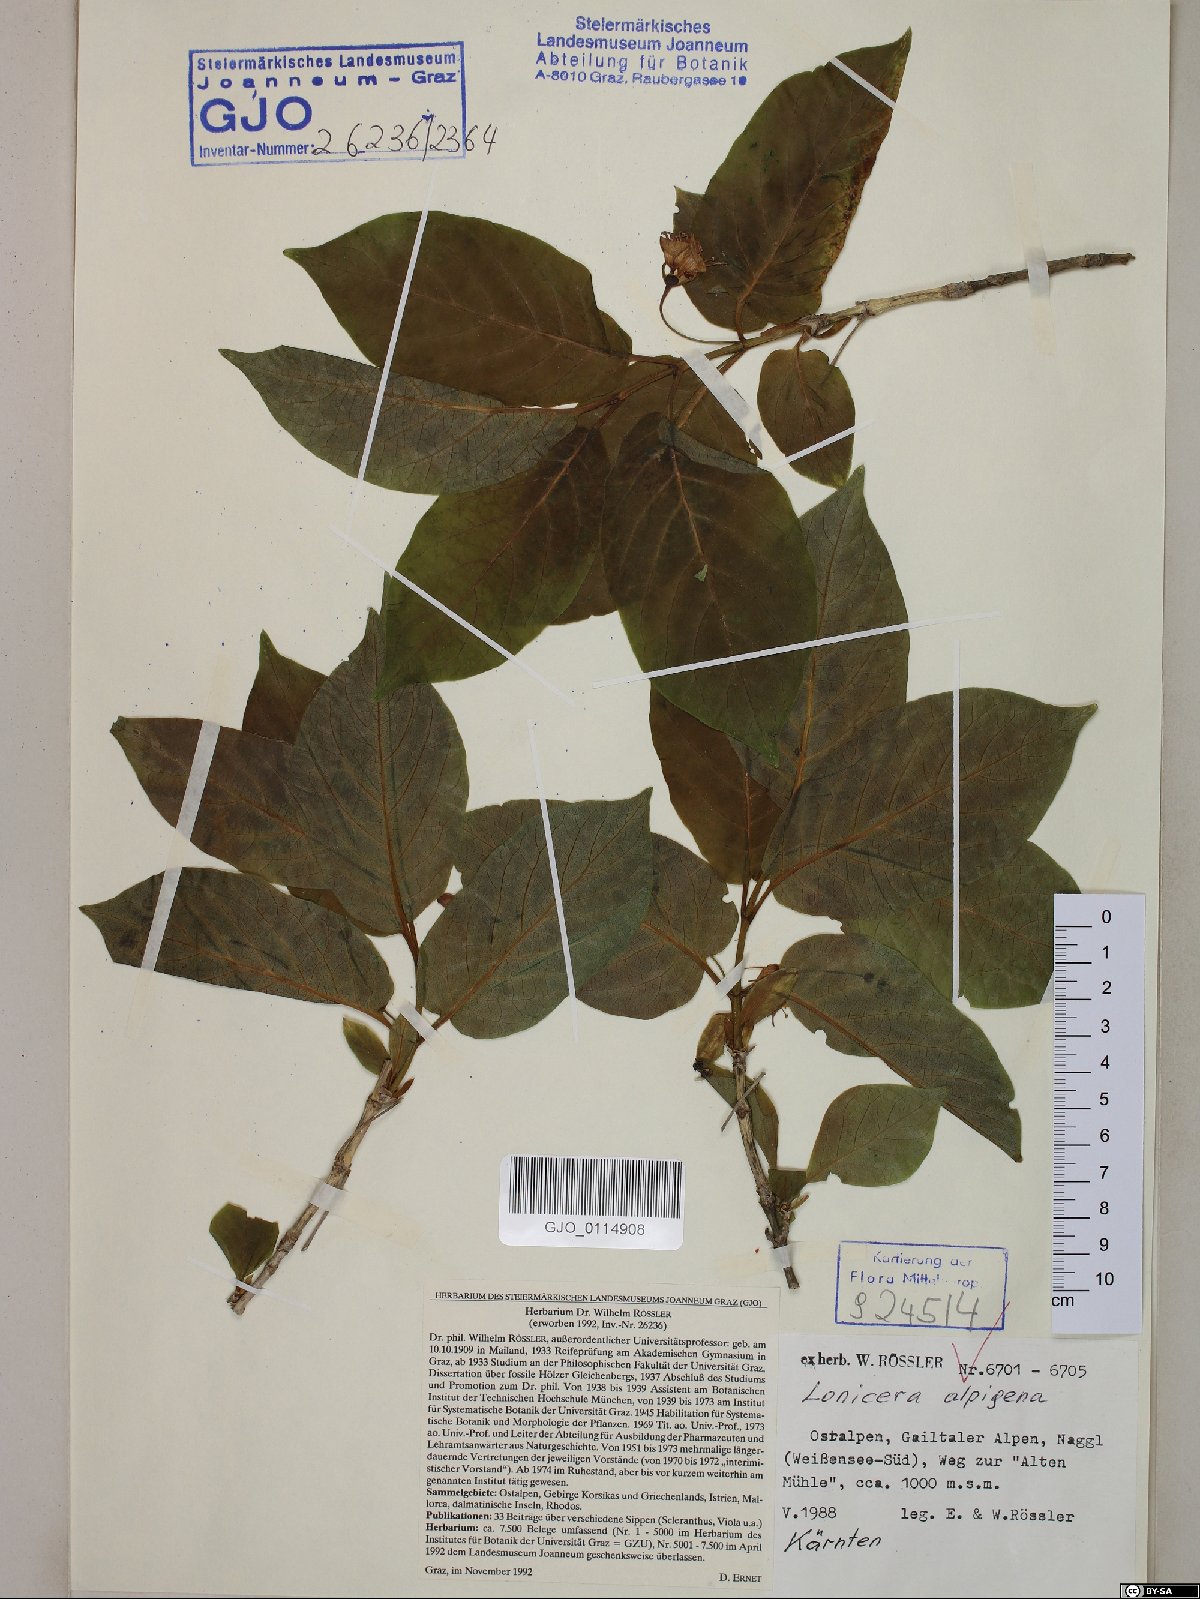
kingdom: Plantae
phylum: Tracheophyta
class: Magnoliopsida
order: Dipsacales
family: Caprifoliaceae
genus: Lonicera
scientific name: Lonicera alpigena
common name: Alpine honeysuckle
